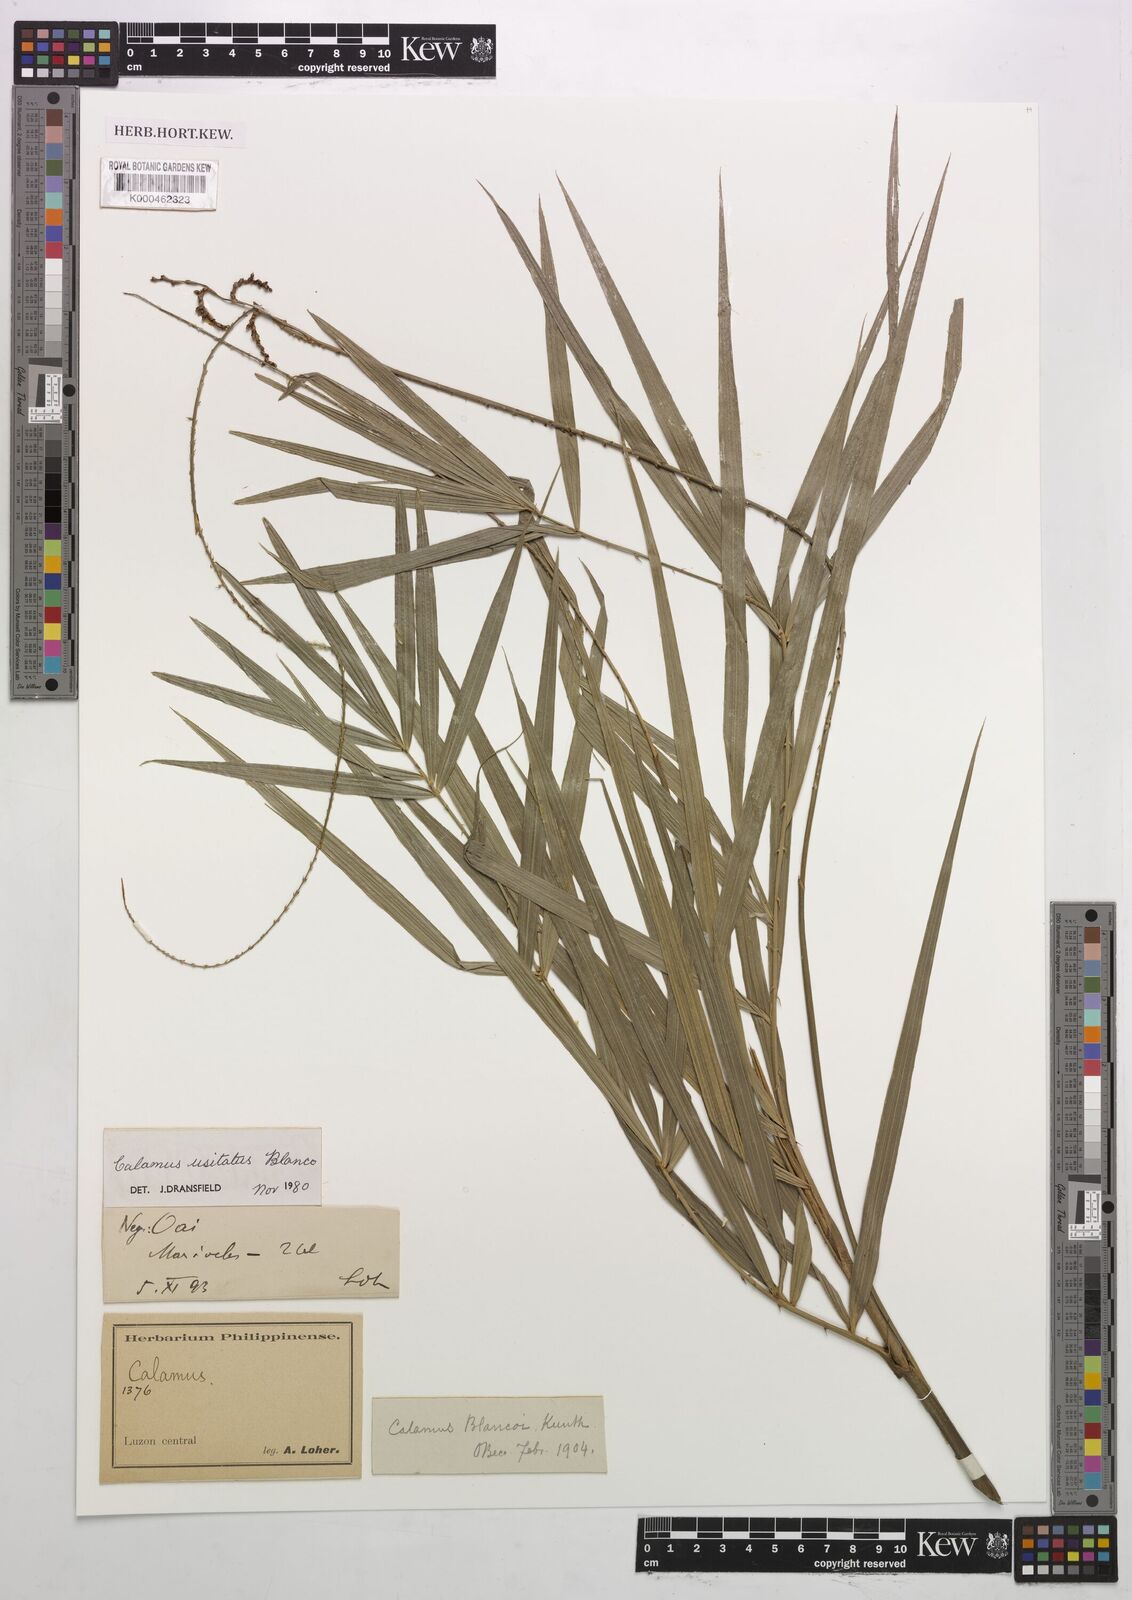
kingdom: Plantae
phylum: Tracheophyta
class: Liliopsida
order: Arecales
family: Arecaceae
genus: Calamus
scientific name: Calamus usitatus
